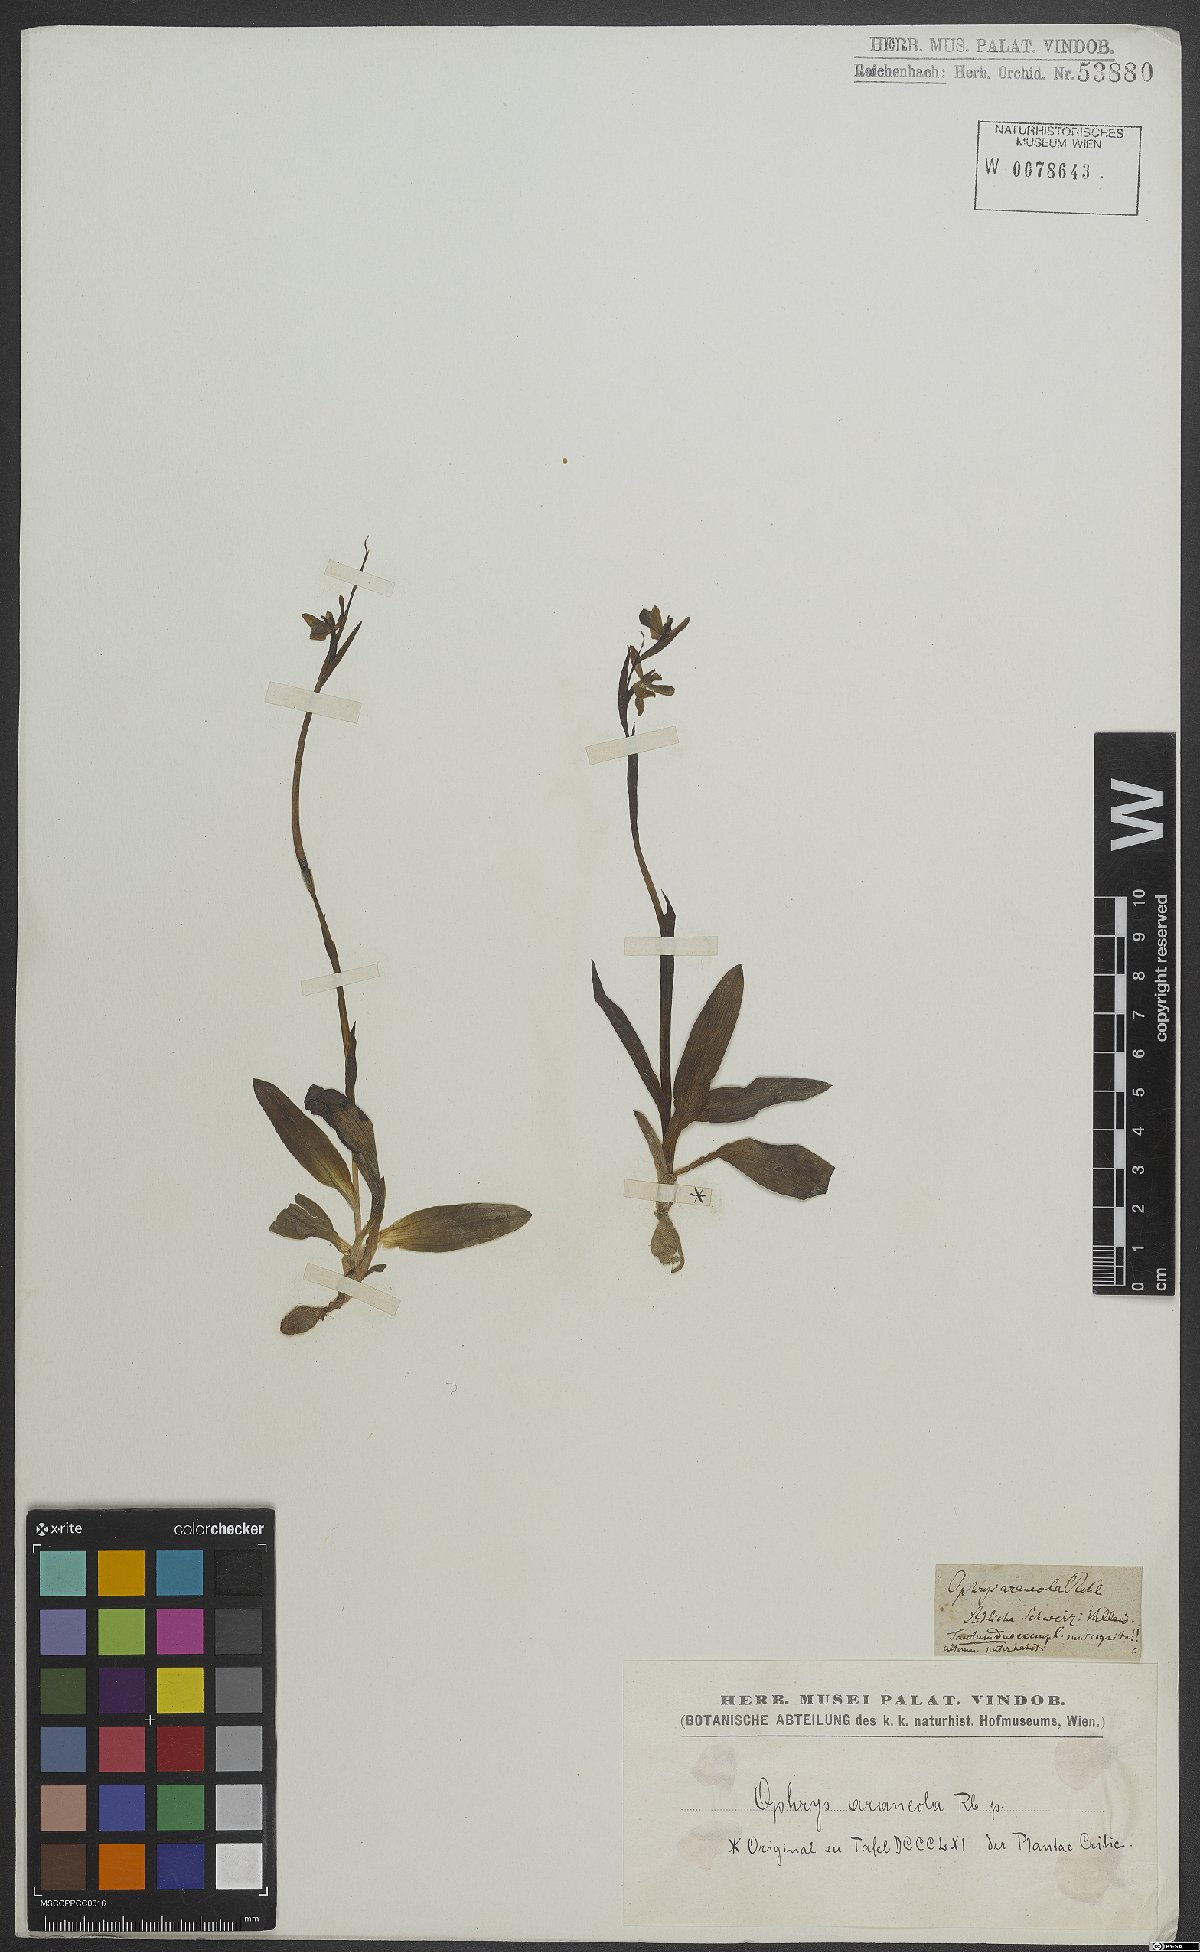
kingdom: Plantae
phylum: Tracheophyta
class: Liliopsida
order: Asparagales
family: Orchidaceae
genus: Ophrys
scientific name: Ophrys sphegodes
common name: Early spider-orchid
